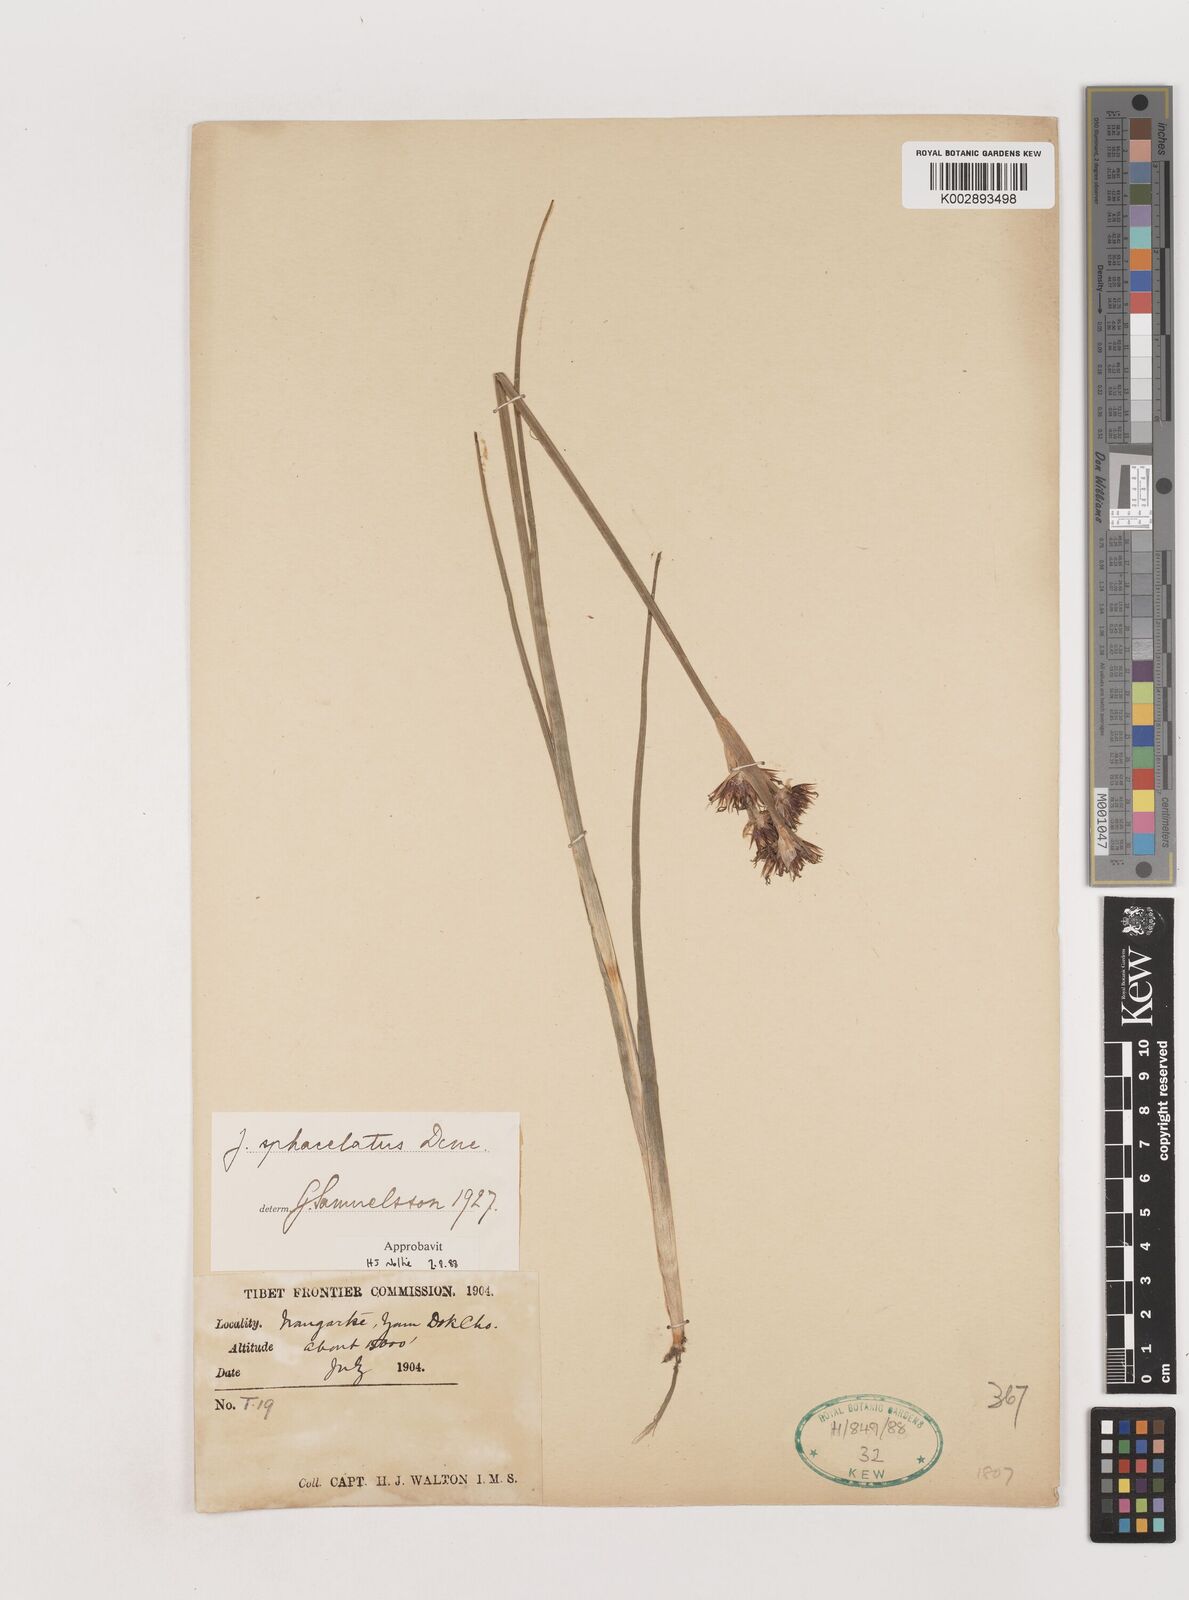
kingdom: Plantae
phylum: Tracheophyta
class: Liliopsida
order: Poales
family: Juncaceae
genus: Juncus
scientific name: Juncus sphacelatus
